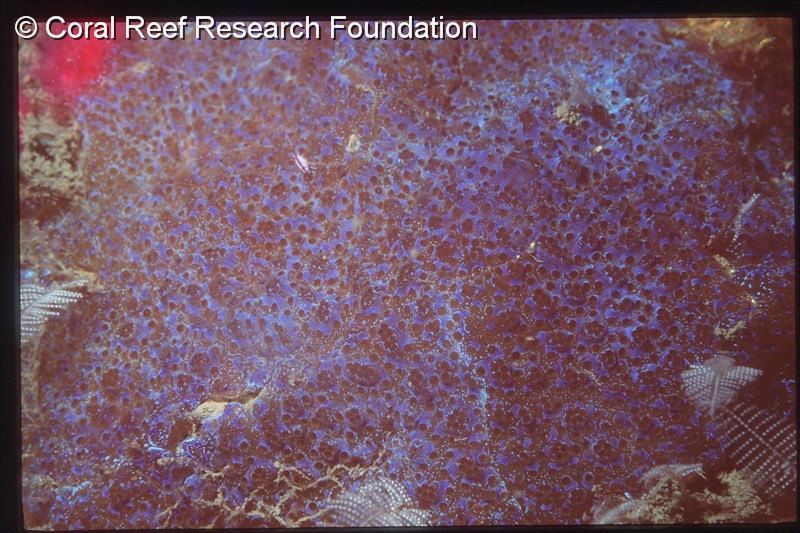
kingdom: Animalia
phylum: Chordata
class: Ascidiacea
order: Aplousobranchia
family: Polycitoridae
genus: Eudistoma
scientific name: Eudistoma
